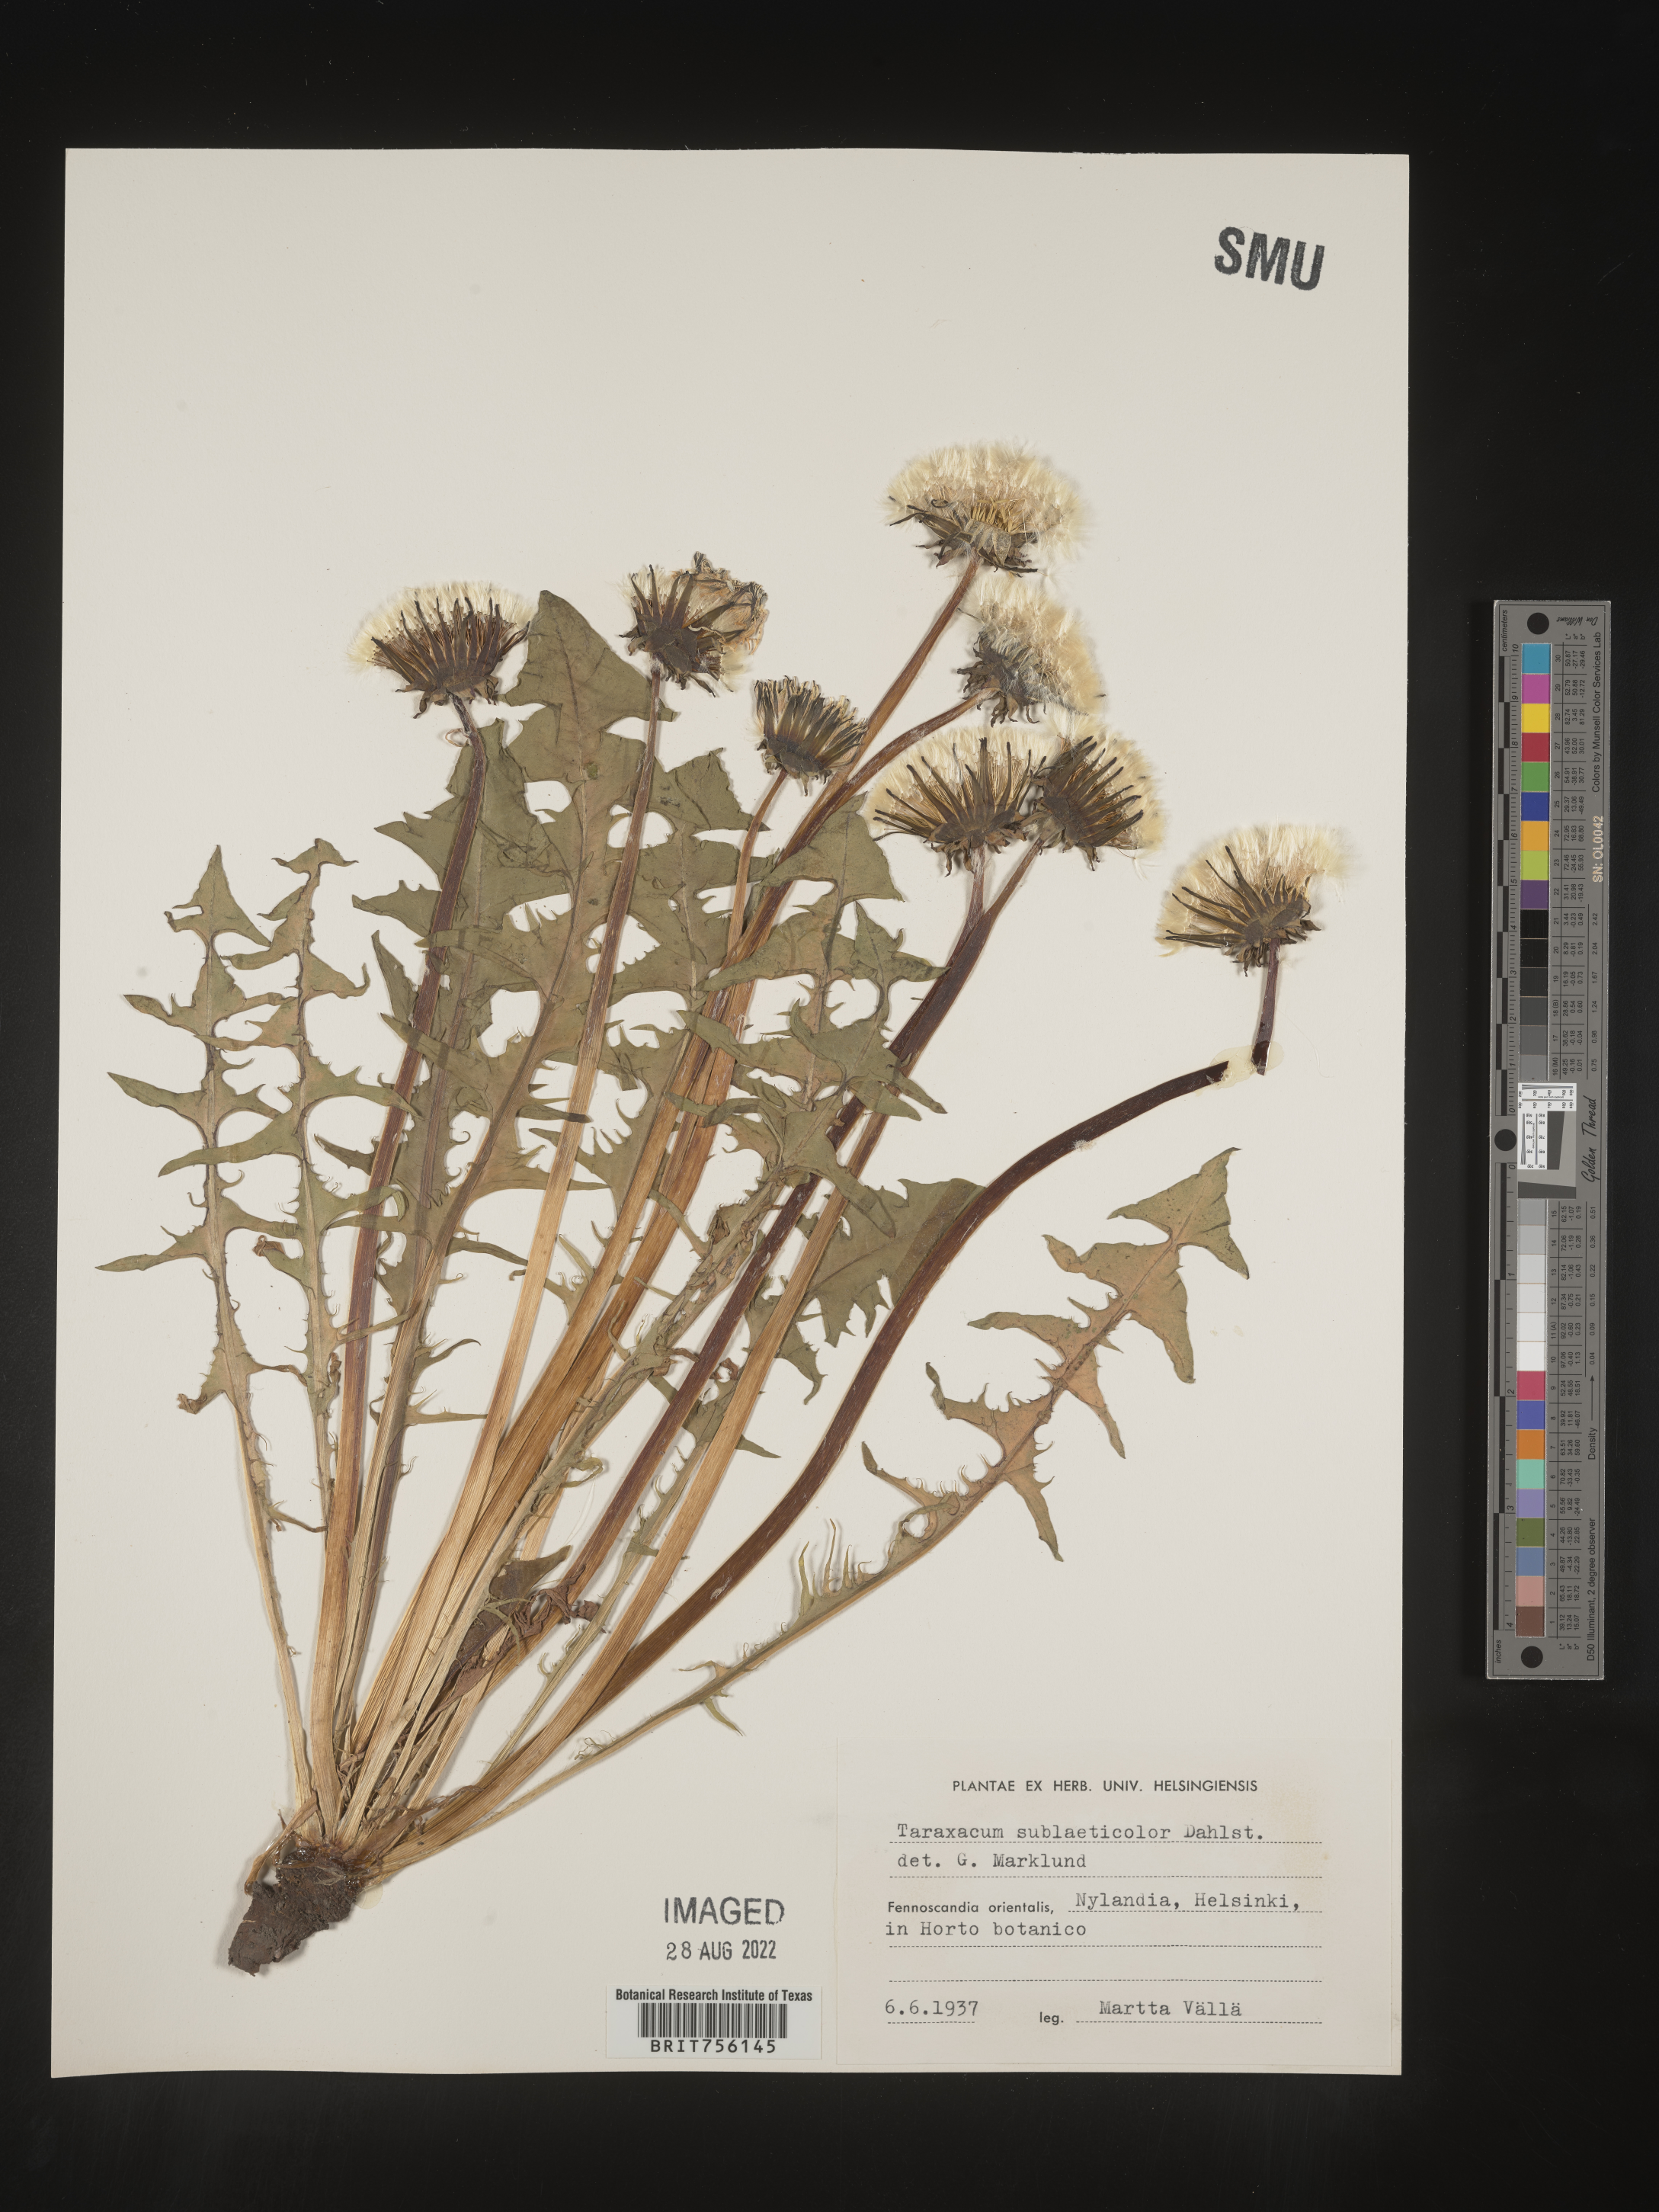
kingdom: Plantae
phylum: Tracheophyta
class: Magnoliopsida
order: Asterales
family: Asteraceae
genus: Taraxacum
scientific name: Taraxacum
